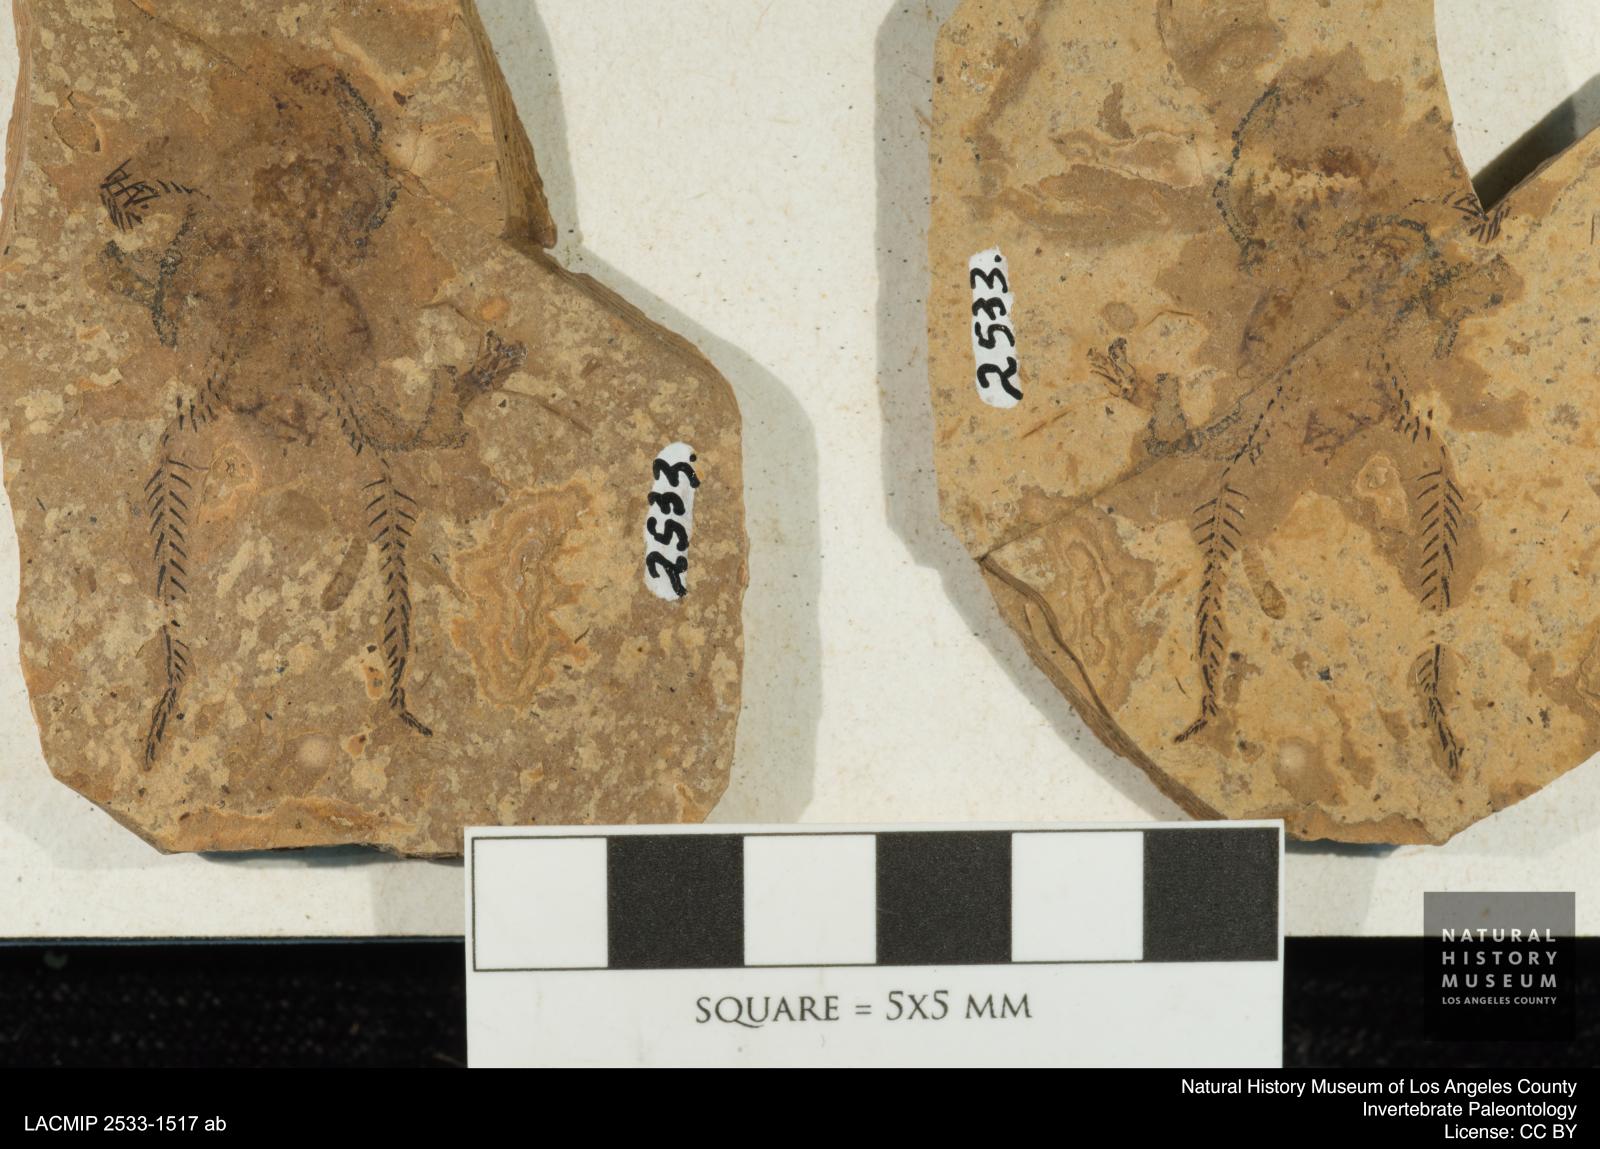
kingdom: Animalia
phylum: Arthropoda
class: Insecta
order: Odonata
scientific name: Odonata
